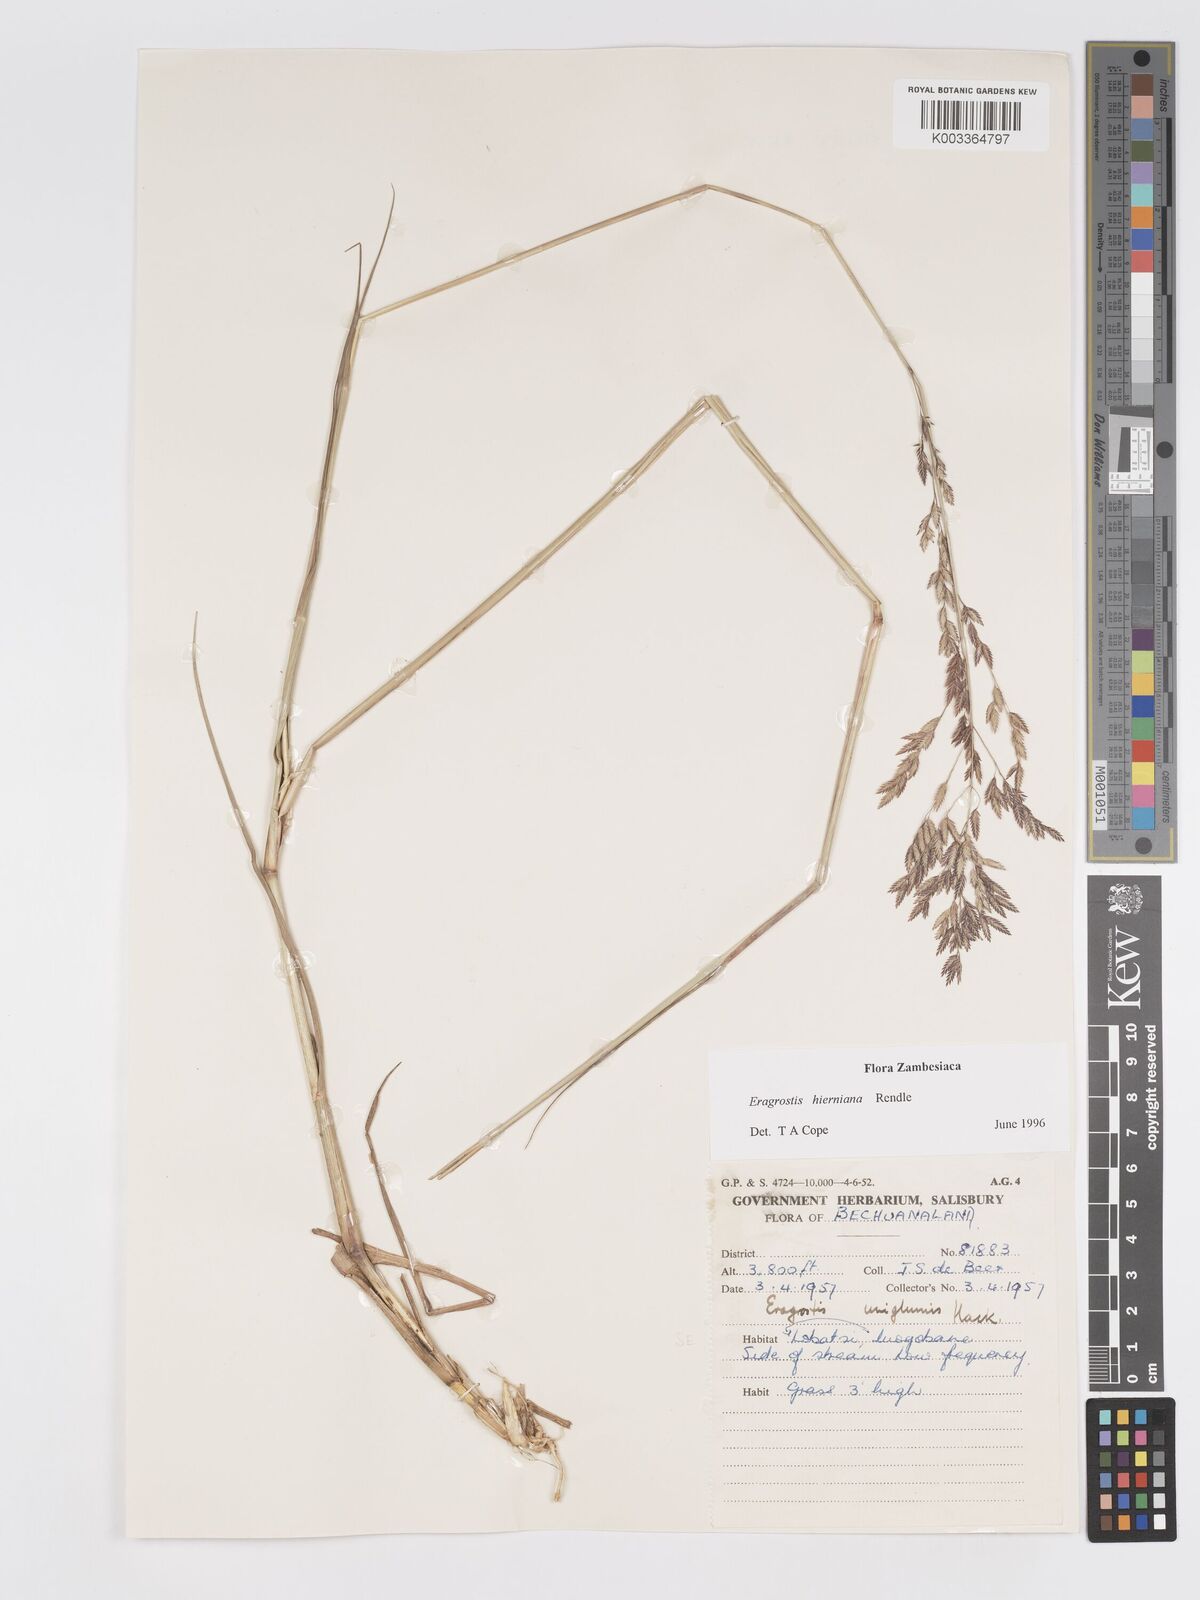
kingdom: Plantae
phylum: Tracheophyta
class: Liliopsida
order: Poales
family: Poaceae
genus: Eragrostis
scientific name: Eragrostis hierniana
